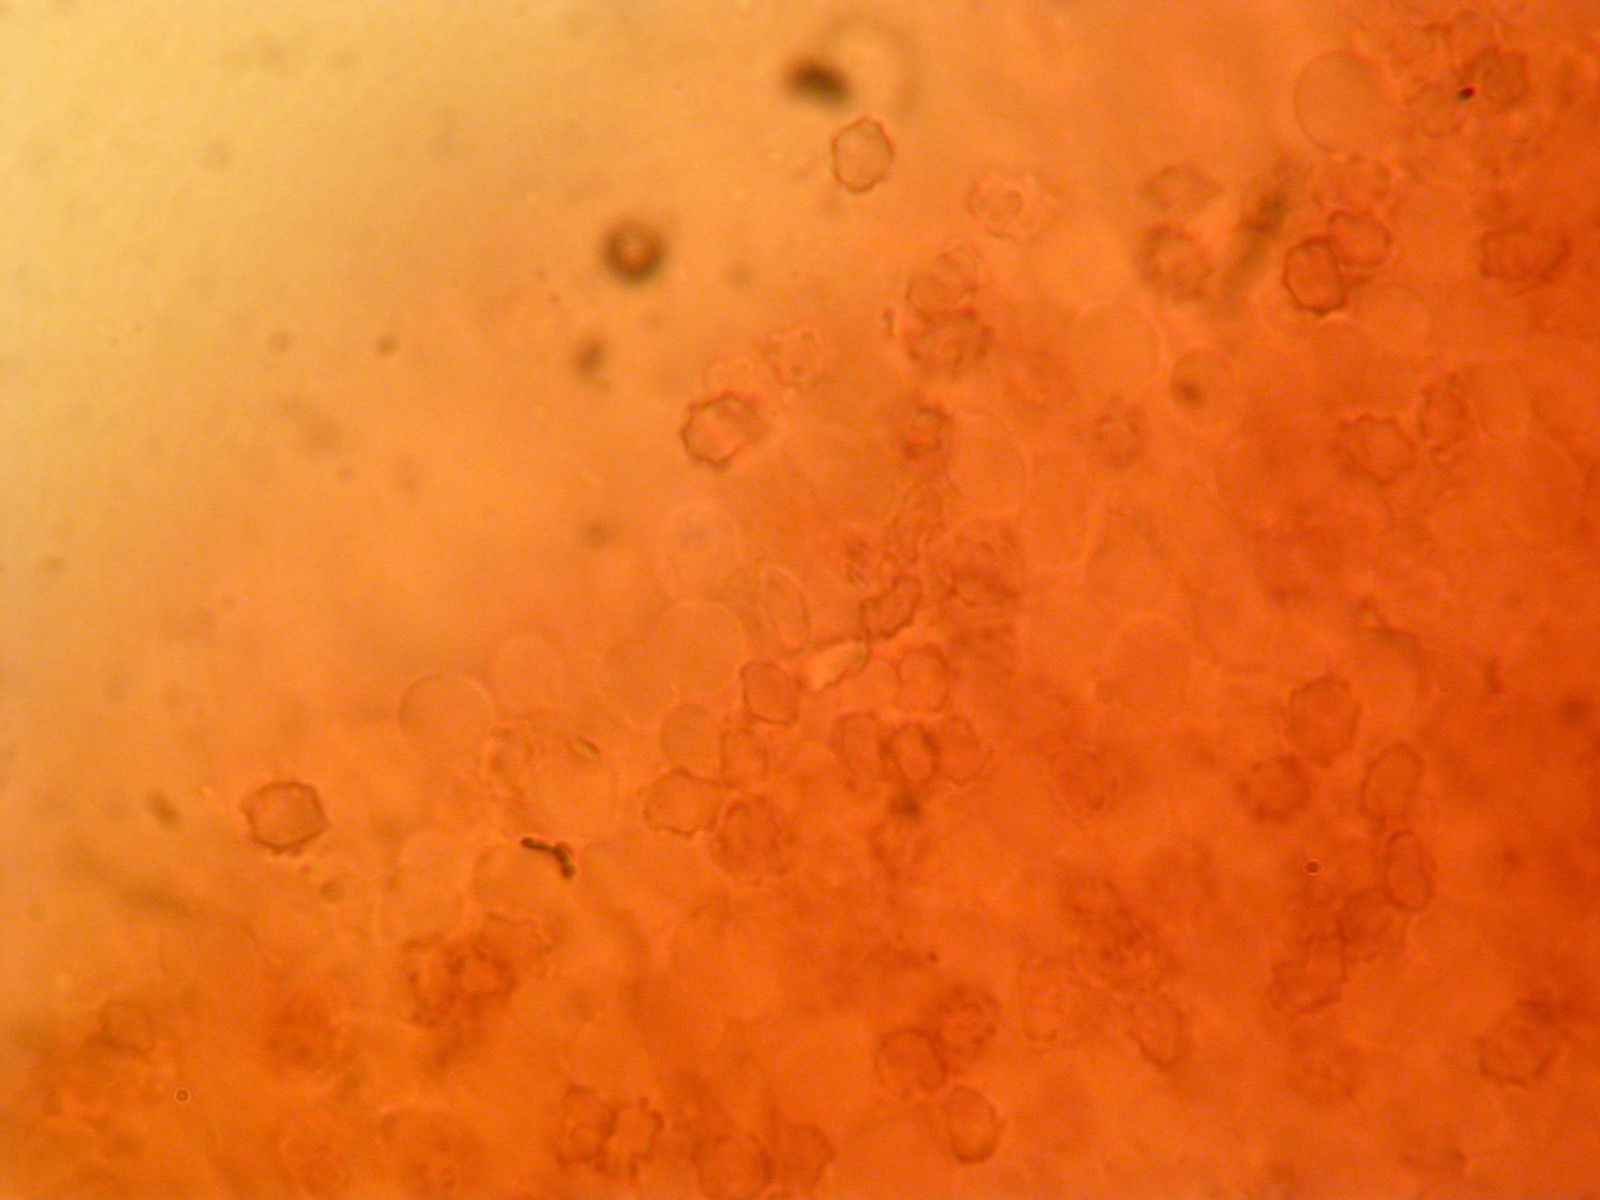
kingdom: Fungi
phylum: Basidiomycota
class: Agaricomycetes
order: Thelephorales
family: Bankeraceae
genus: Hydnellum
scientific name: Hydnellum aurantiacum
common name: orange korkpigsvamp
